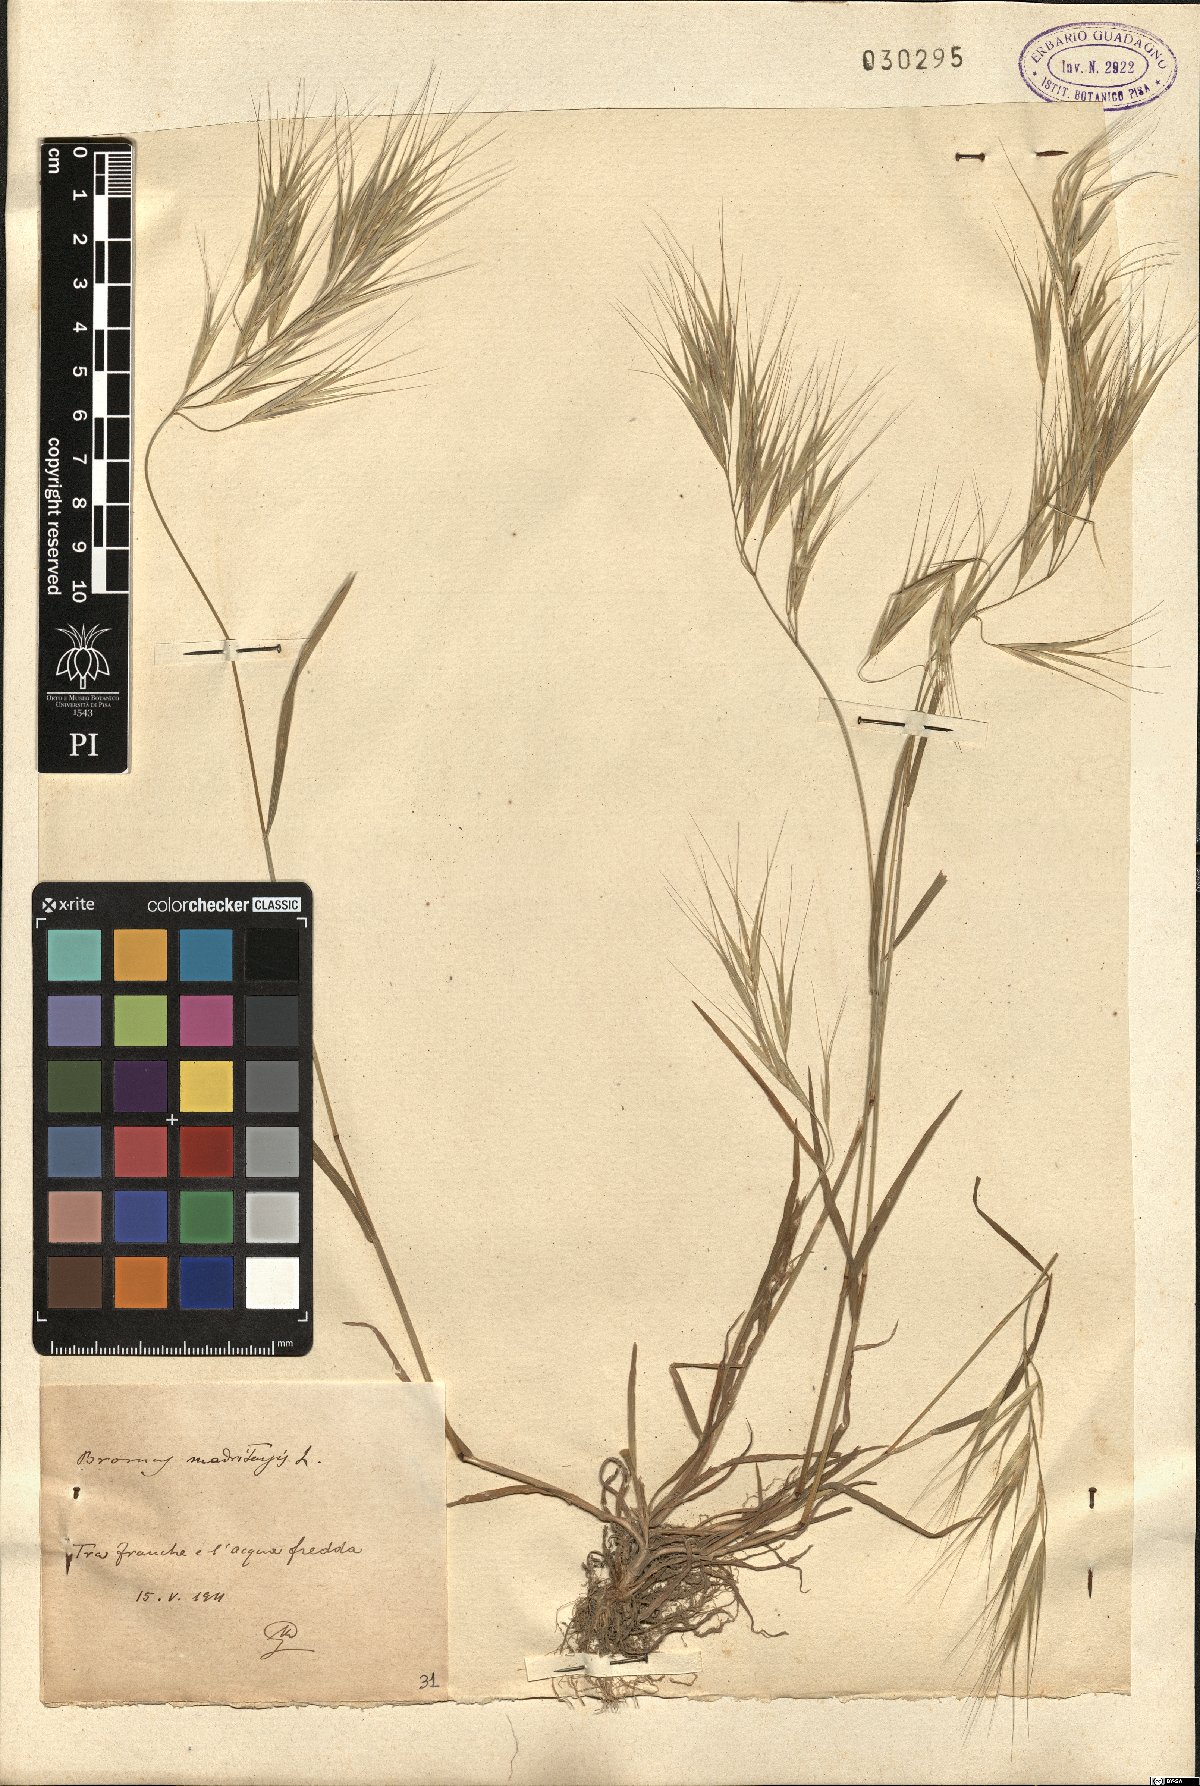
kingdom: Plantae
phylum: Tracheophyta
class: Liliopsida
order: Poales
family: Poaceae
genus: Bromus
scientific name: Bromus madritensis
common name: Compact brome
